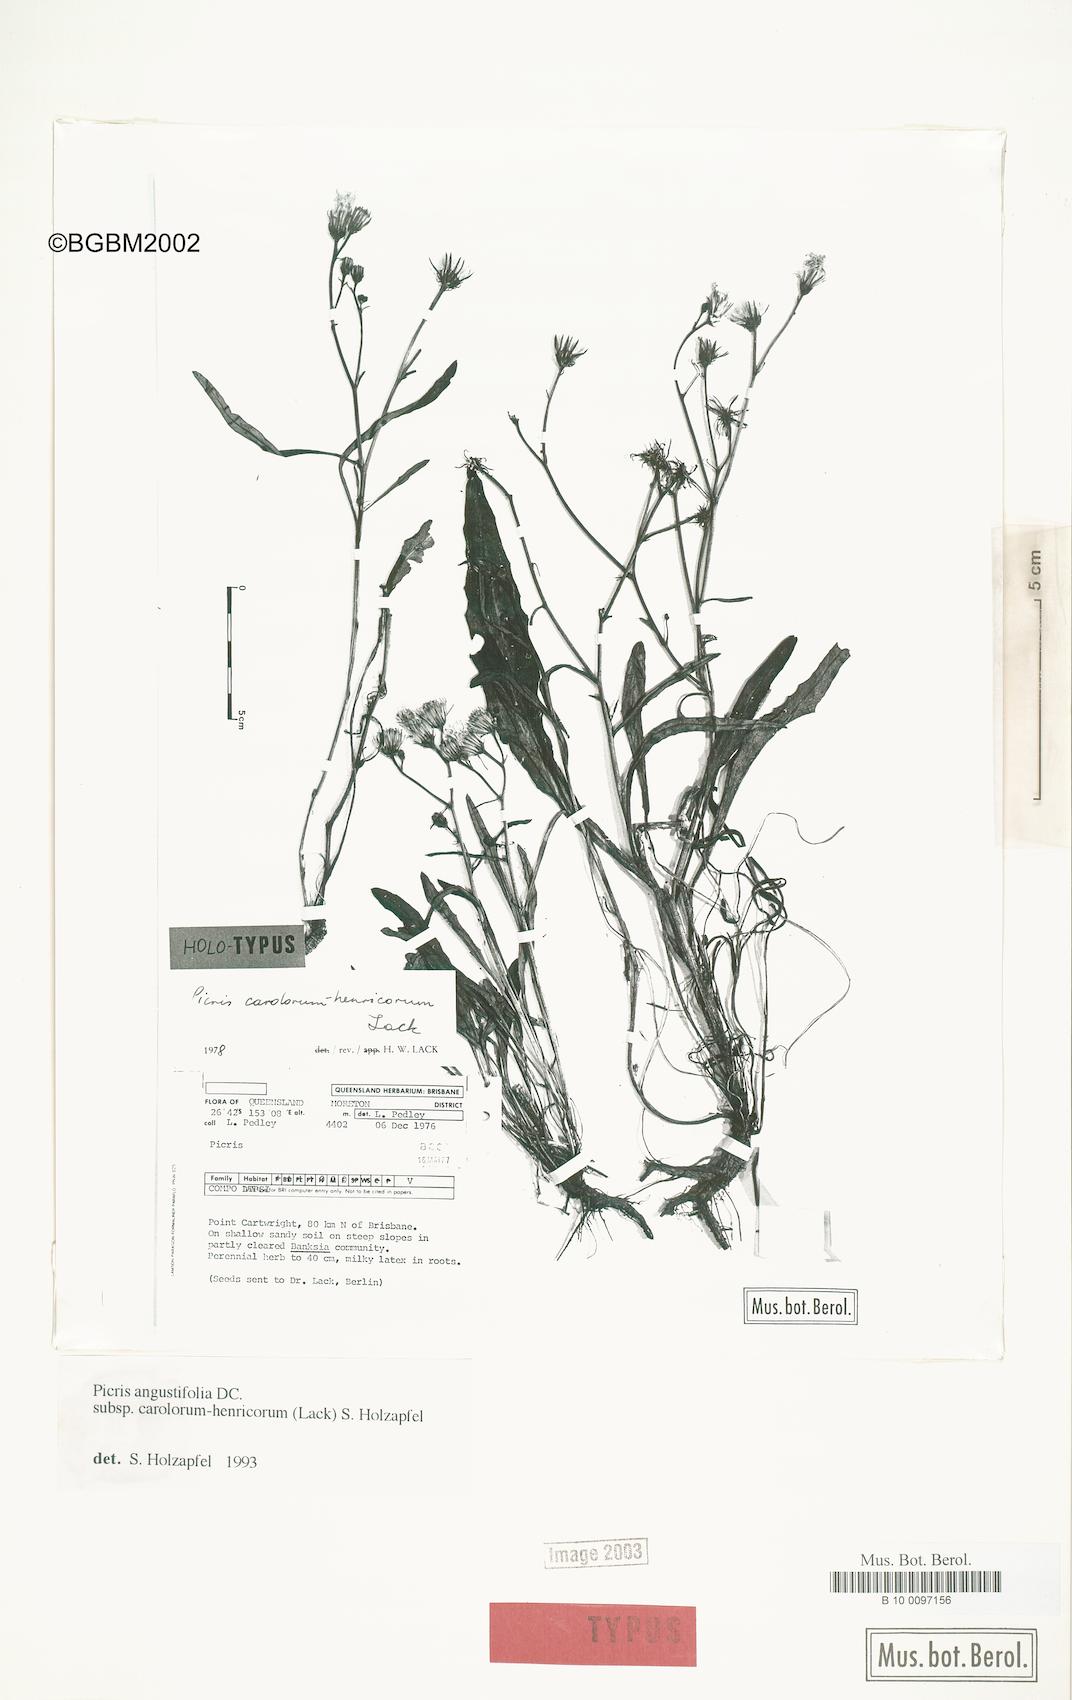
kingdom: Plantae
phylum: Tracheophyta
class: Magnoliopsida
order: Asterales
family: Asteraceae
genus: Picris
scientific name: Picris angustifolia
